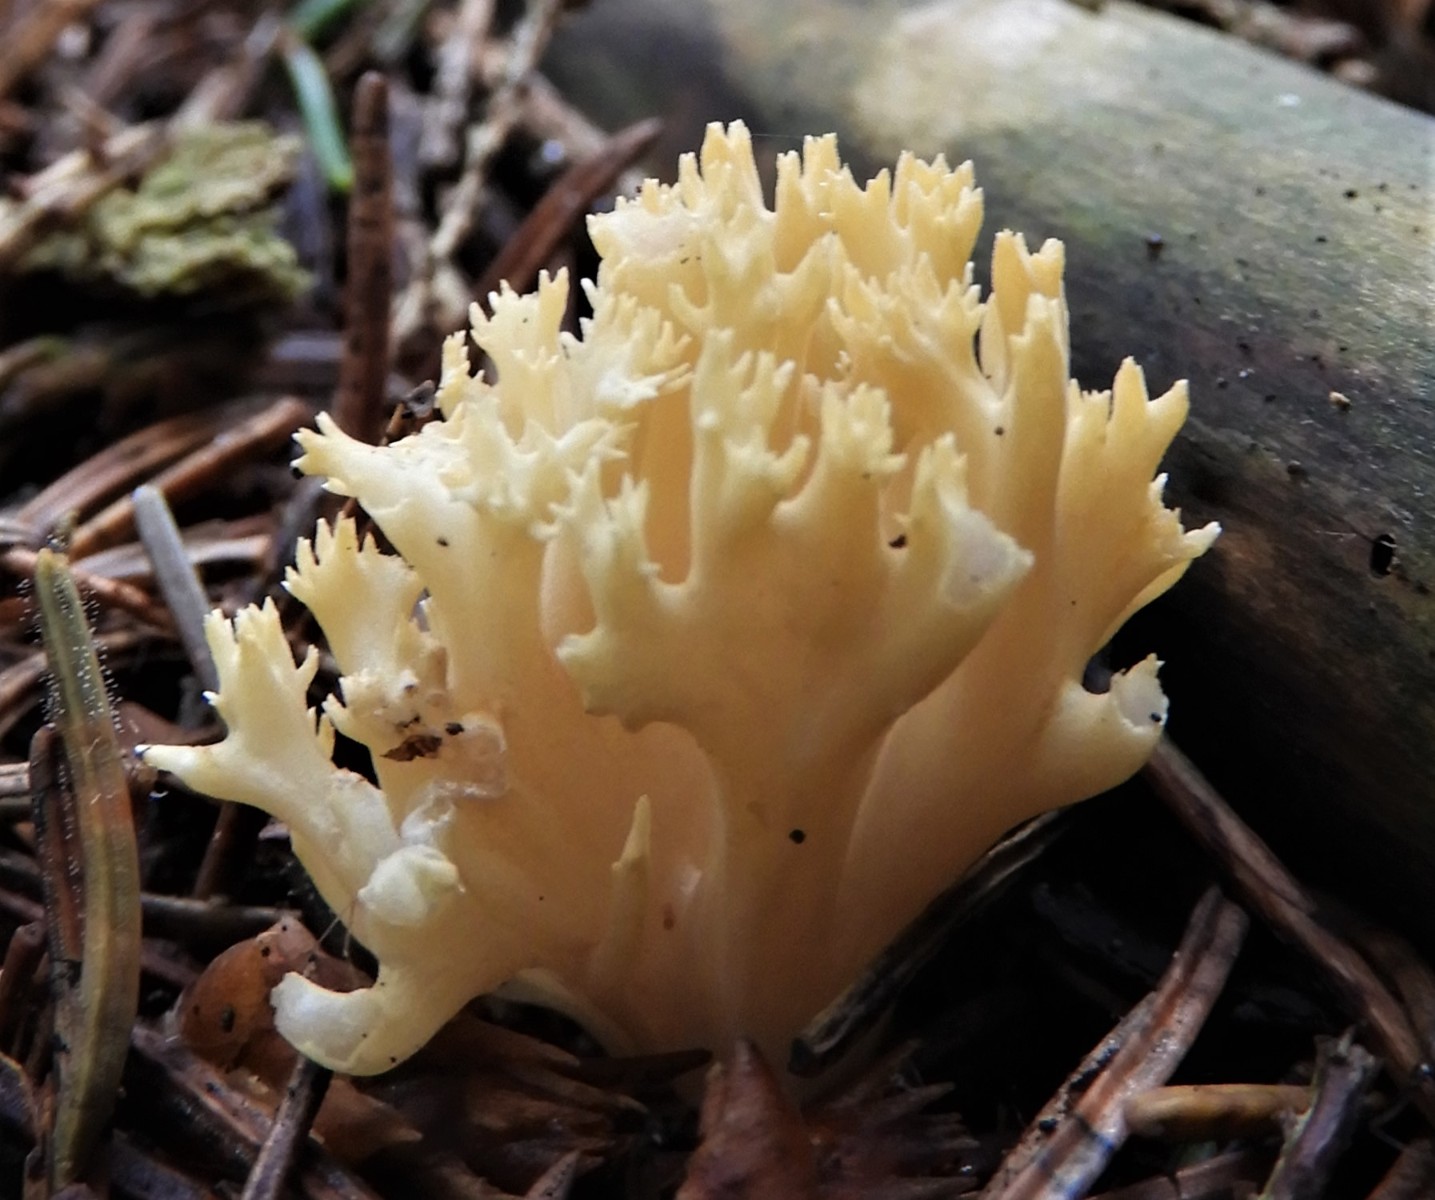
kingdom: Fungi
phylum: Basidiomycota
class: Agaricomycetes
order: Gomphales
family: Gomphaceae
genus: Ramaria
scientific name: Ramaria stricta
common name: rank koralsvamp
